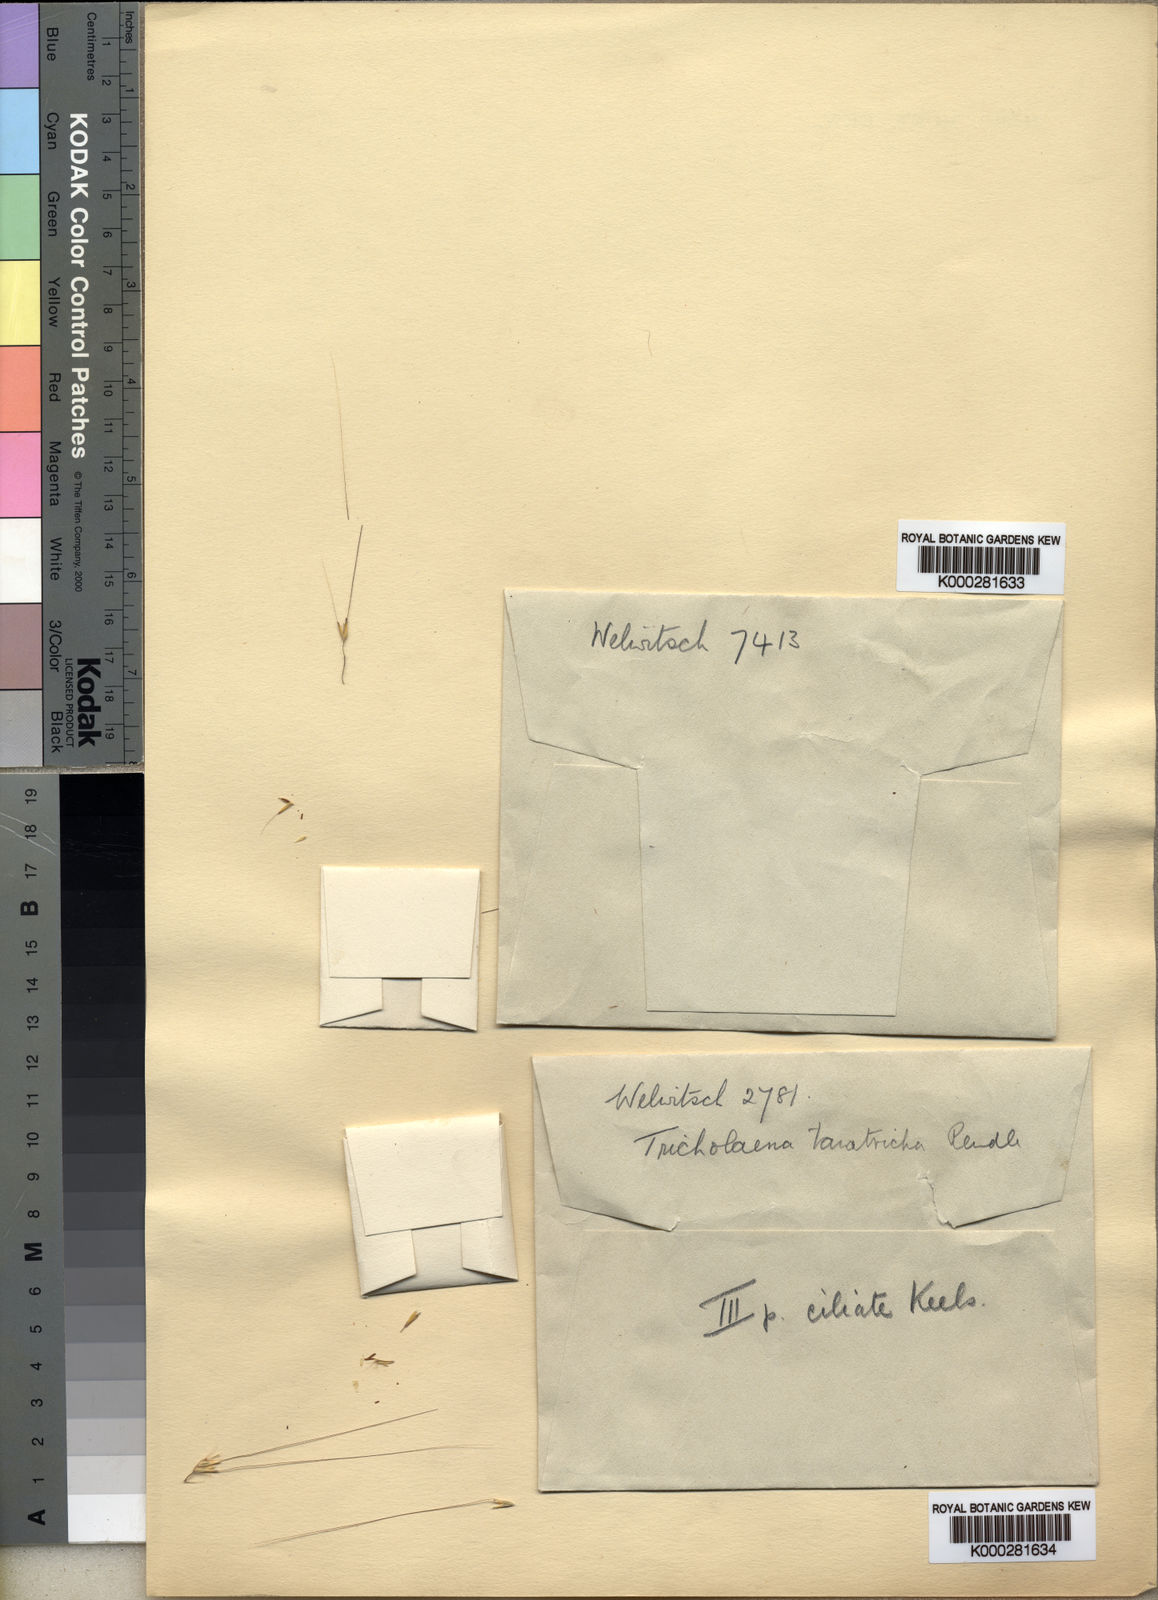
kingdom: Plantae
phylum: Tracheophyta
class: Liliopsida
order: Poales
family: Poaceae
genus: Melinis
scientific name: Melinis tanatricha
